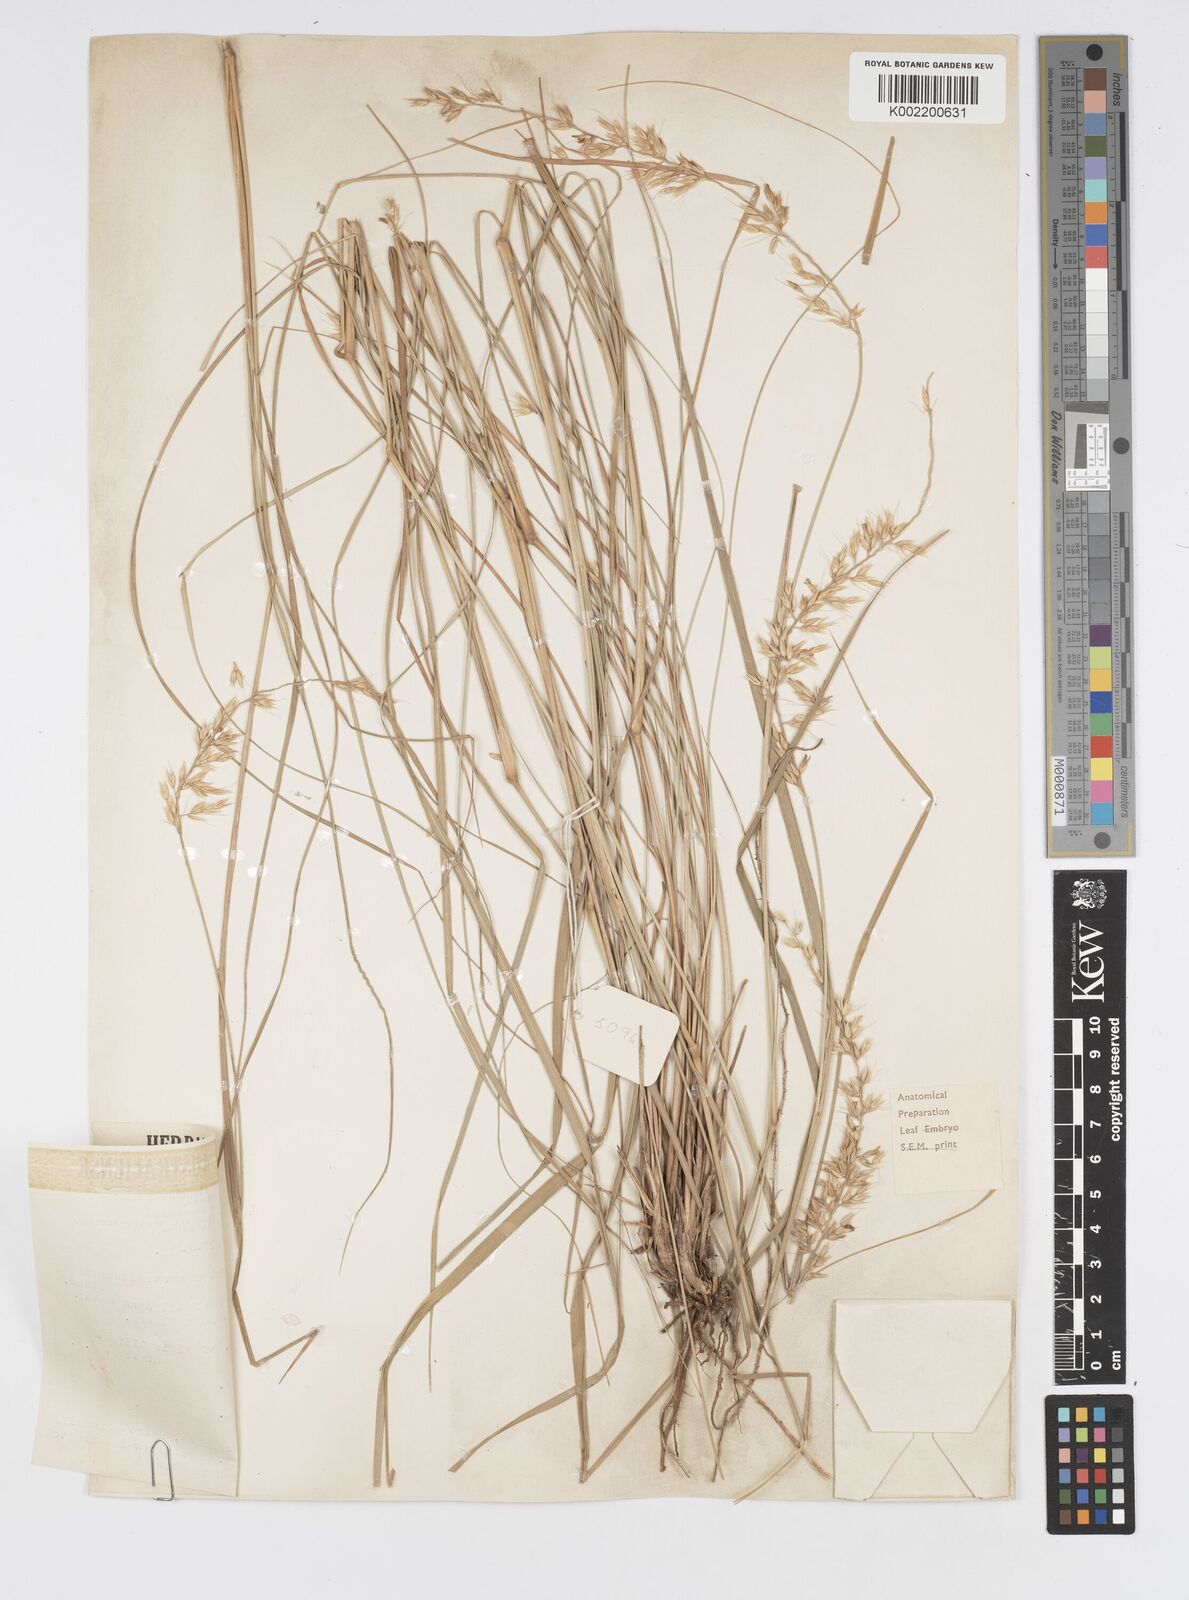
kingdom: Plantae
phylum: Tracheophyta
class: Liliopsida
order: Poales
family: Poaceae
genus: Cenchrus
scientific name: Cenchrus arnhemicus
